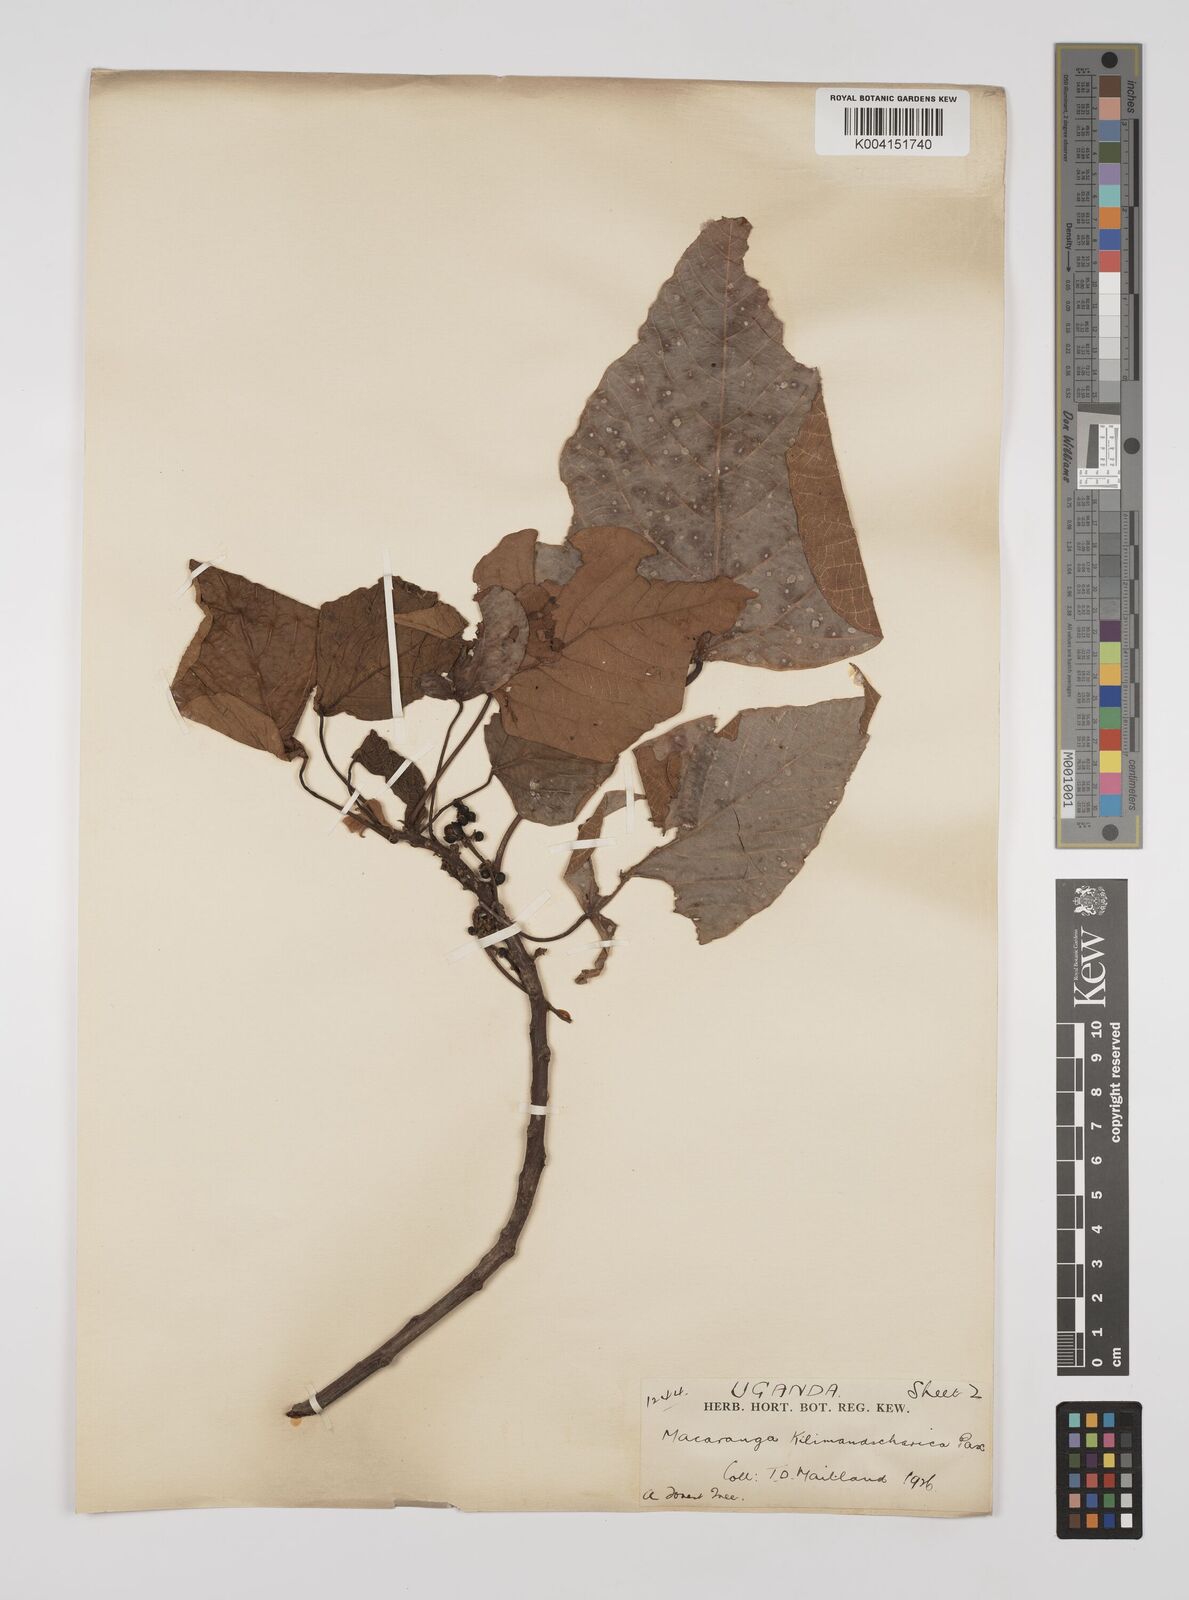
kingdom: Plantae
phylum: Tracheophyta
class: Magnoliopsida
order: Malpighiales
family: Euphorbiaceae
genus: Macaranga
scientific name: Macaranga kilimandscharica
